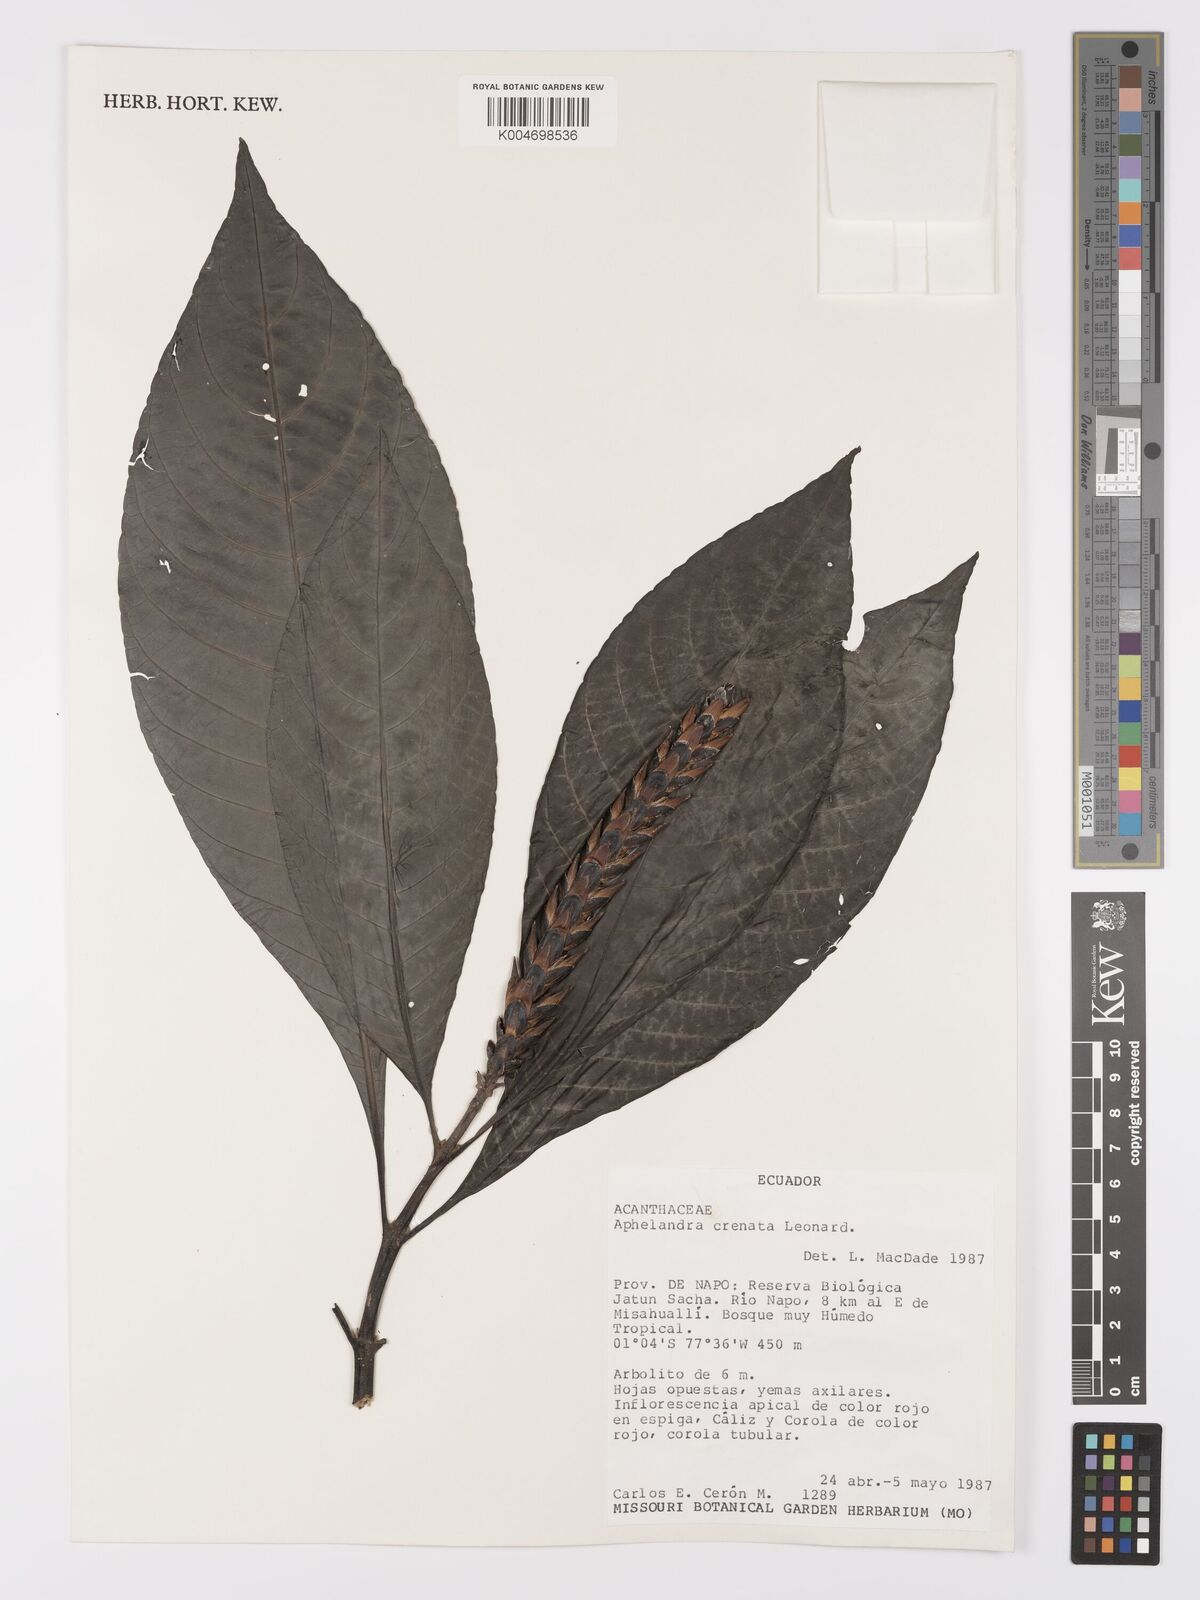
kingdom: Plantae
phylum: Tracheophyta
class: Magnoliopsida
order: Lamiales
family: Acanthaceae
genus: Aphelandra
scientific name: Aphelandra crenata
